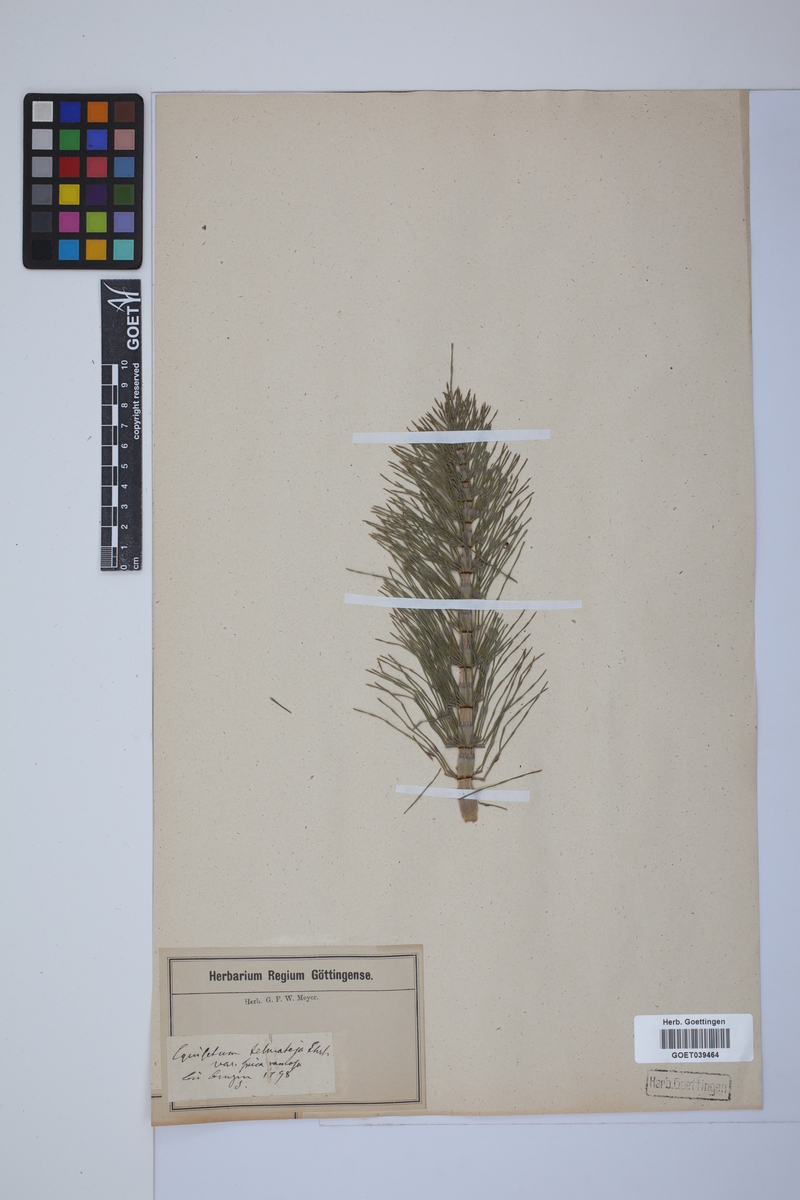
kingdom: Plantae
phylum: Tracheophyta
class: Polypodiopsida
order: Equisetales
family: Equisetaceae
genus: Equisetum
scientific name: Equisetum telmateia
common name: Great horsetail
